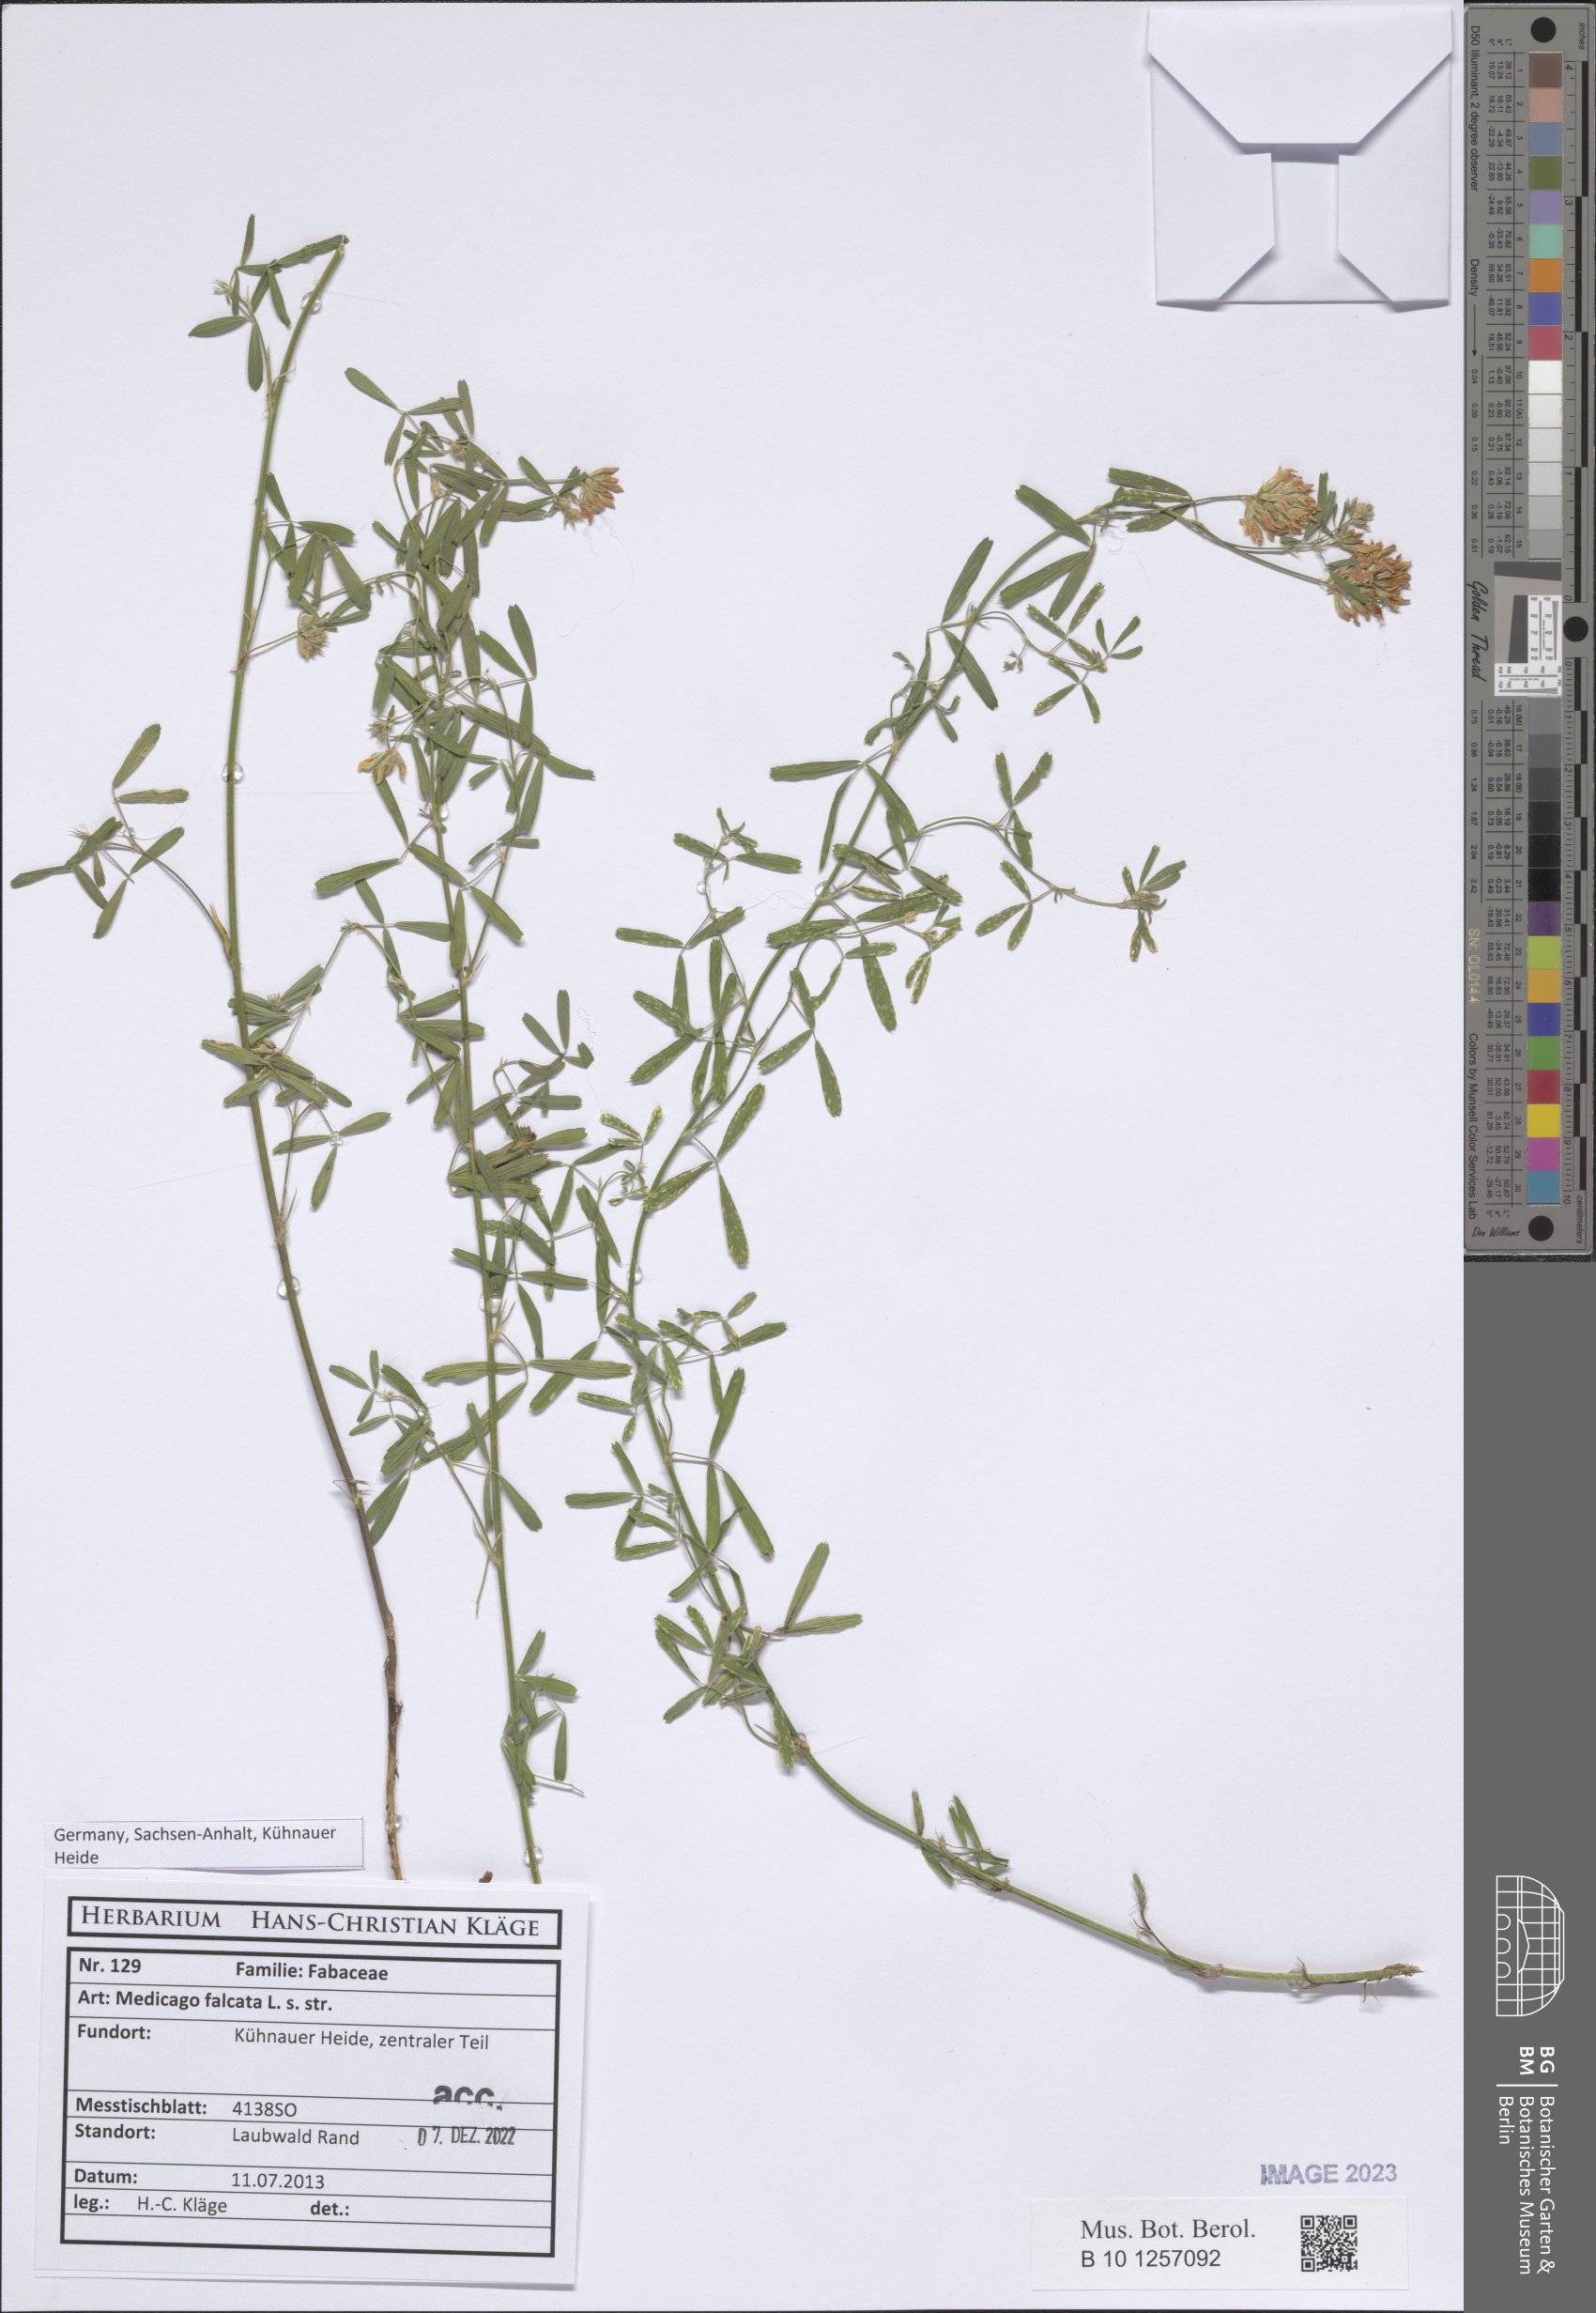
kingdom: Plantae
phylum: Tracheophyta
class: Magnoliopsida
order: Fabales
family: Fabaceae
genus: Medicago
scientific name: Medicago falcata
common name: Sickle medick
